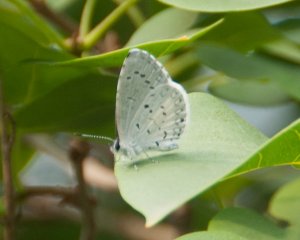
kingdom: Animalia
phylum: Arthropoda
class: Insecta
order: Lepidoptera
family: Lycaenidae
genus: Cyaniris
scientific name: Cyaniris neglecta
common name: Summer Azure
